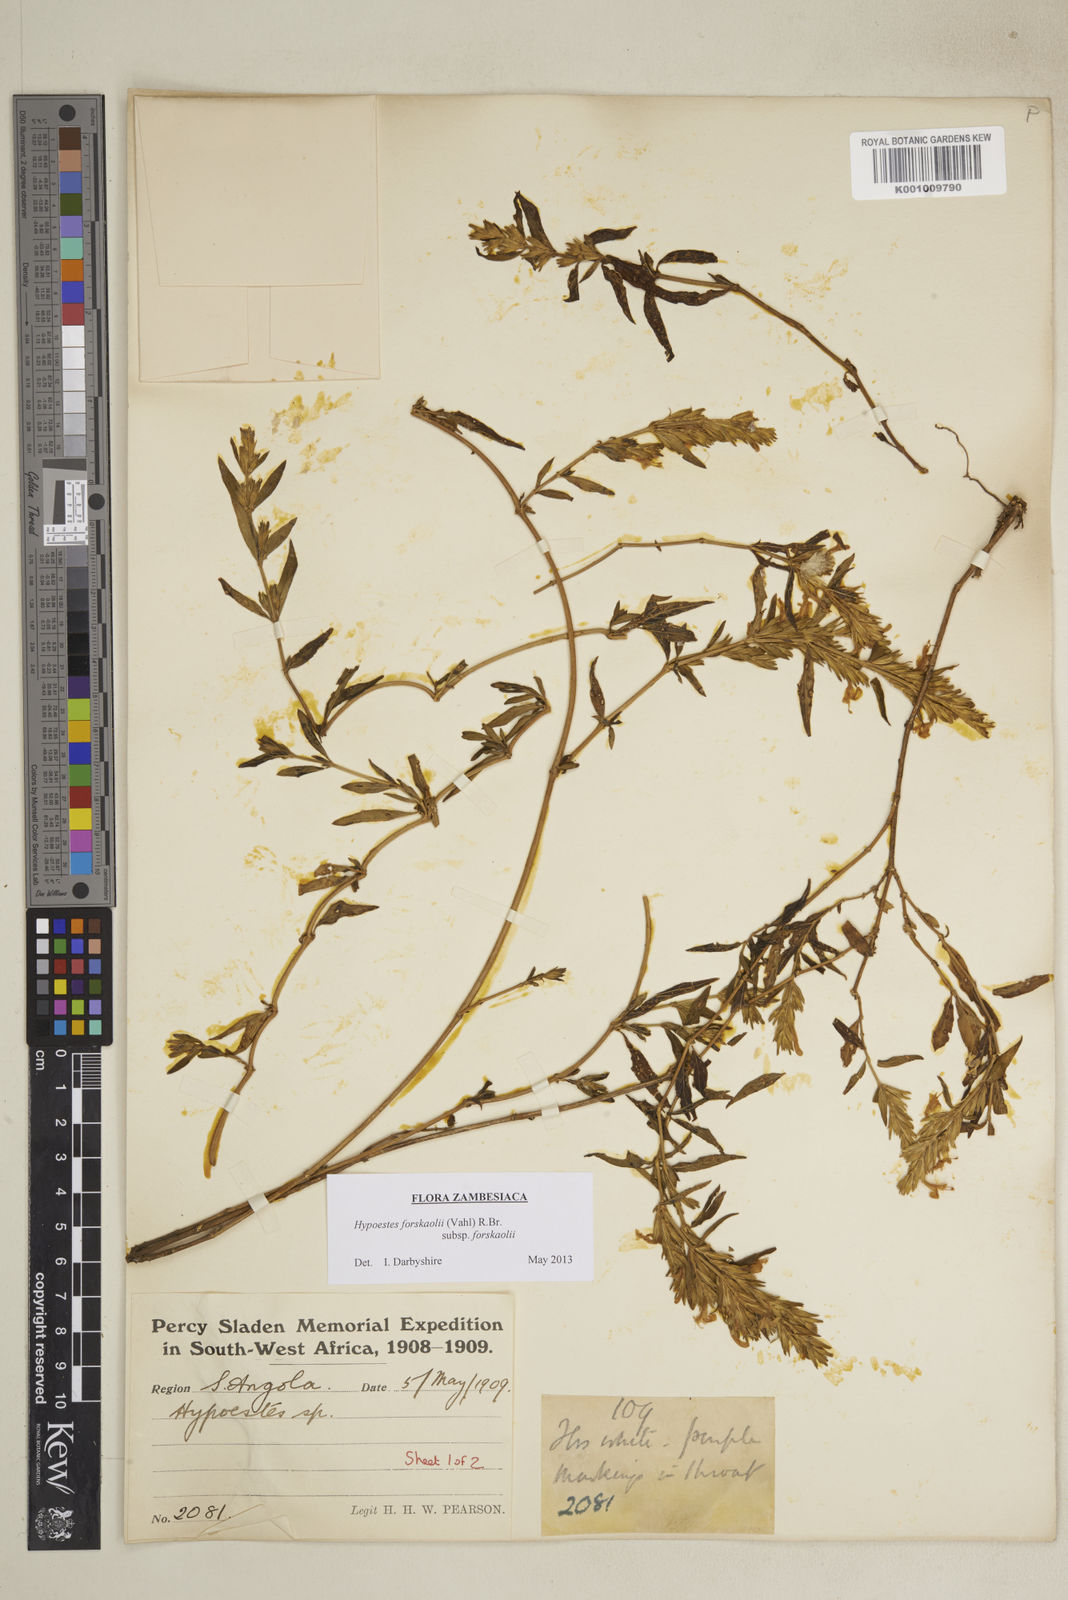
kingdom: Plantae
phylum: Tracheophyta
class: Magnoliopsida
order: Lamiales
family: Acanthaceae
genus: Hypoestes
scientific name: Hypoestes forskaolii
